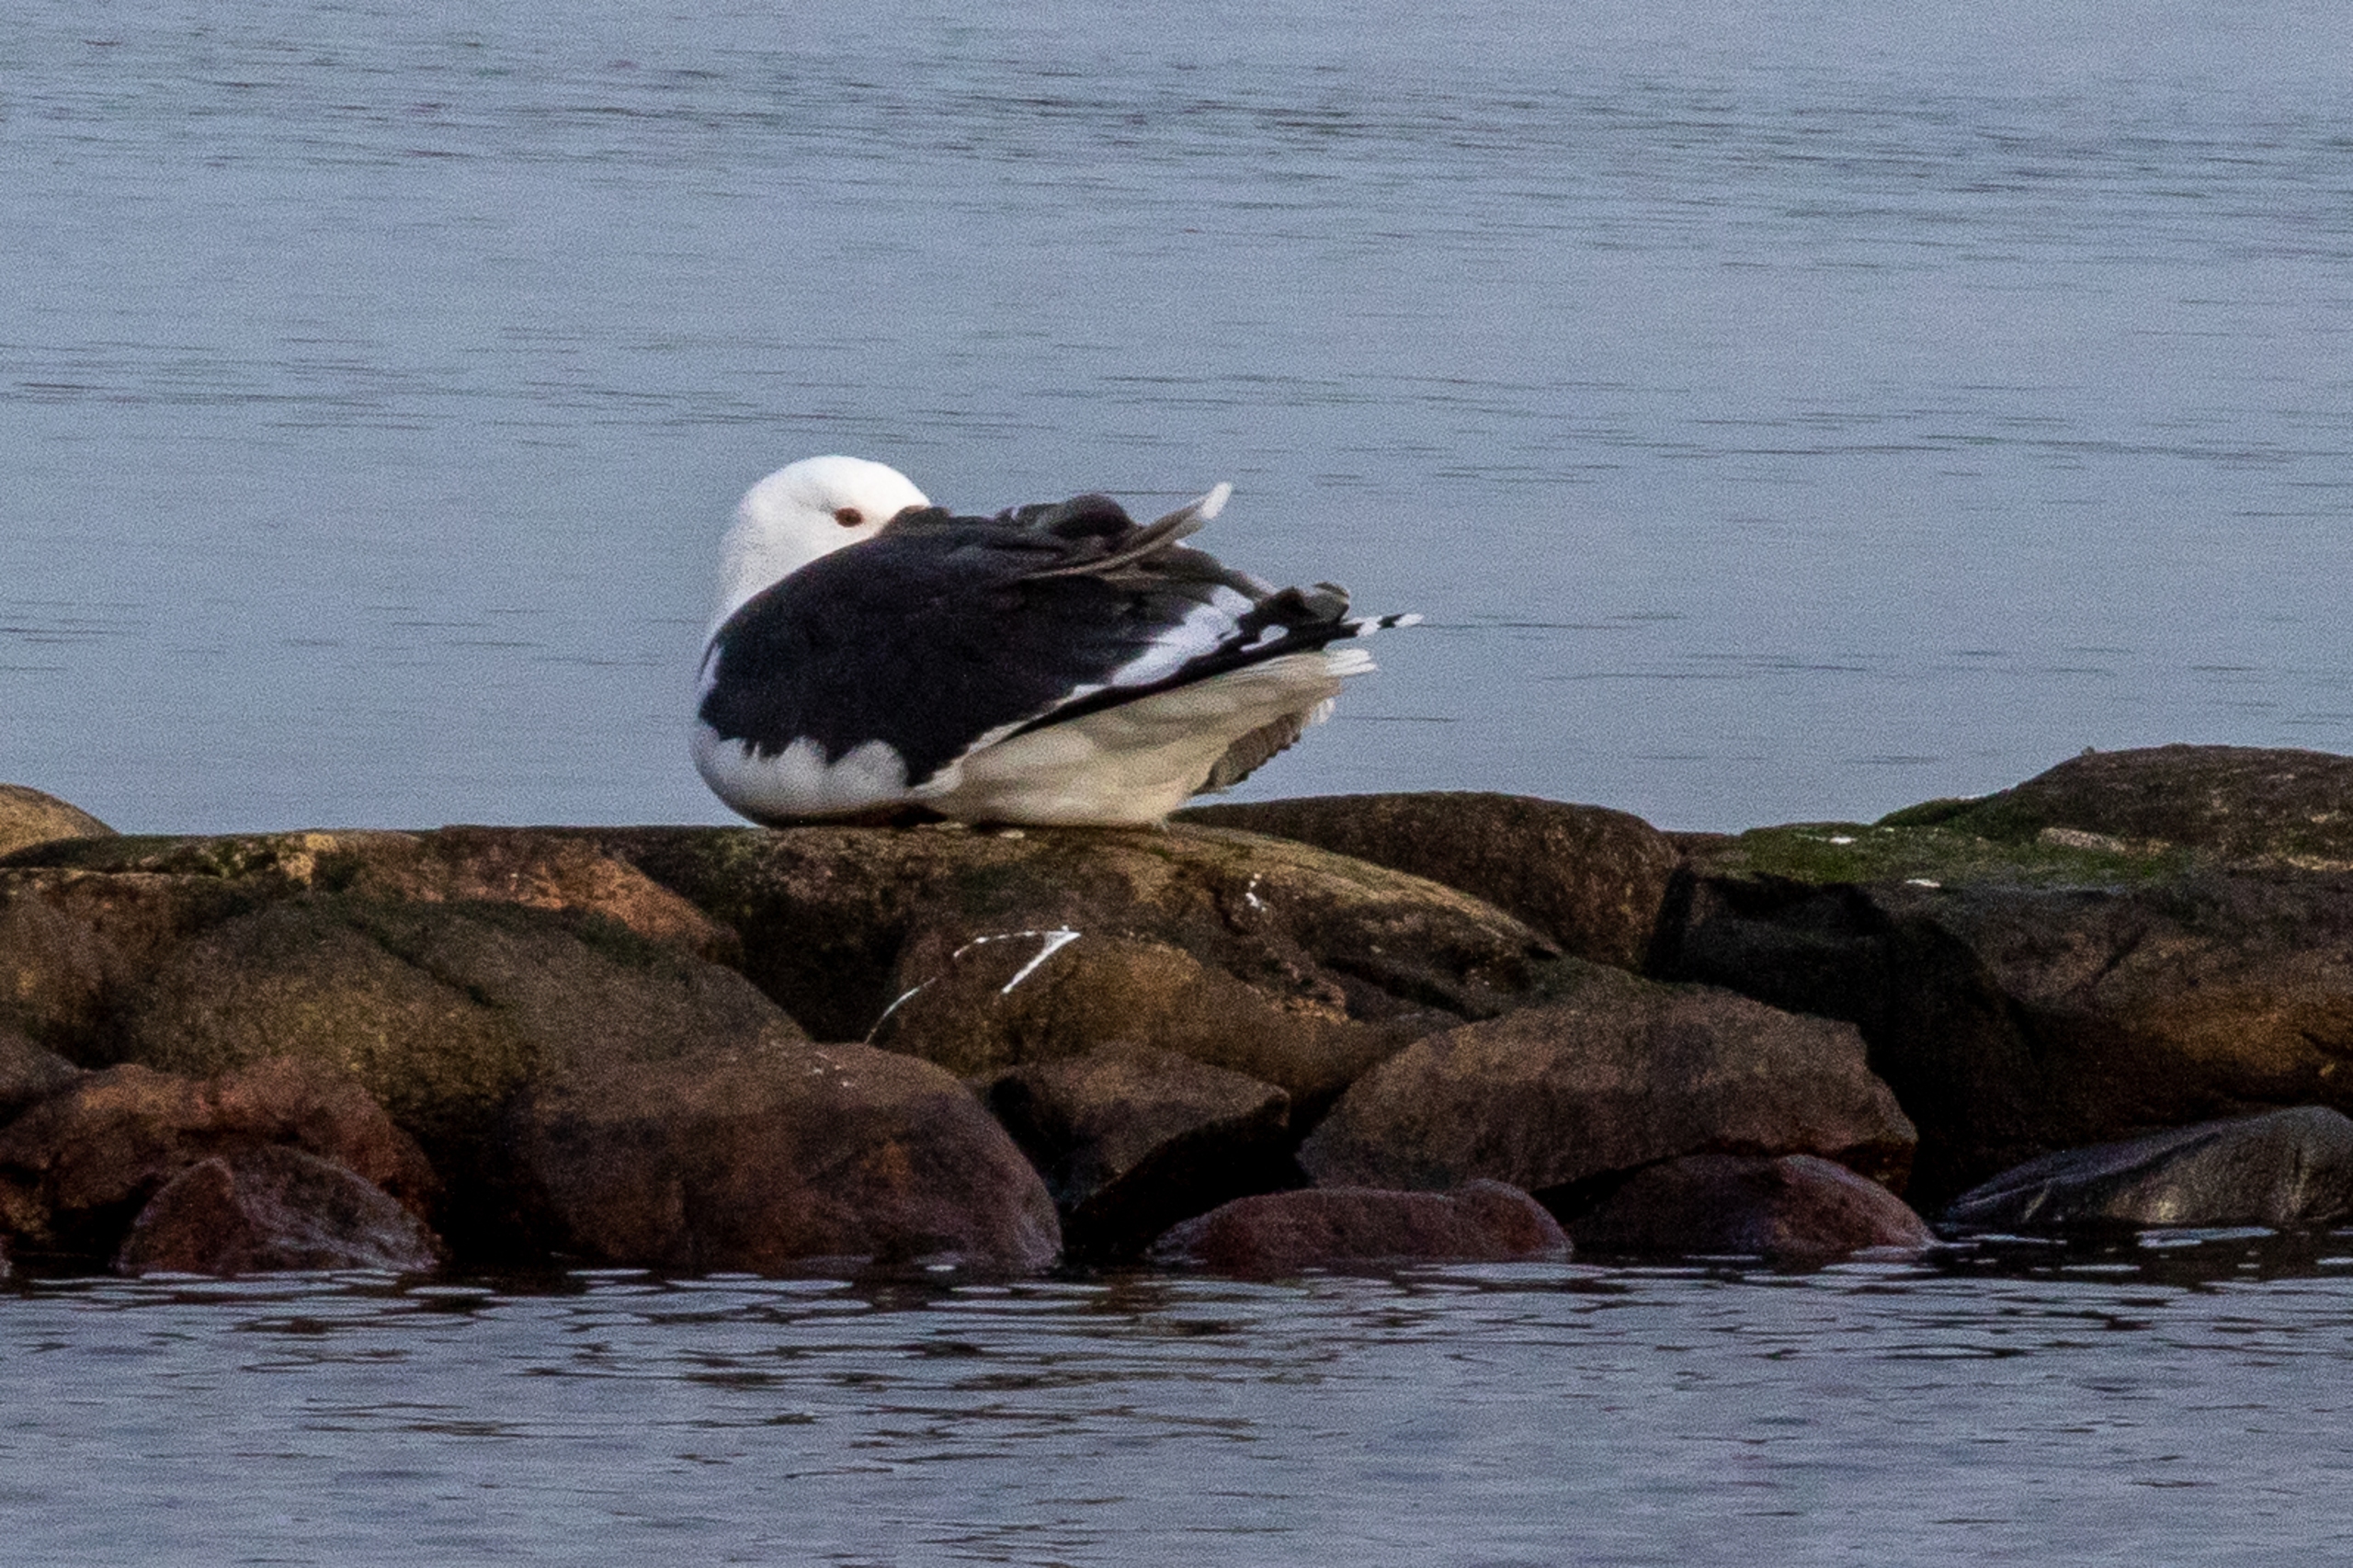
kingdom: Animalia
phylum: Chordata
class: Aves
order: Charadriiformes
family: Laridae
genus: Larus
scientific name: Larus marinus
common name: Svartbag
